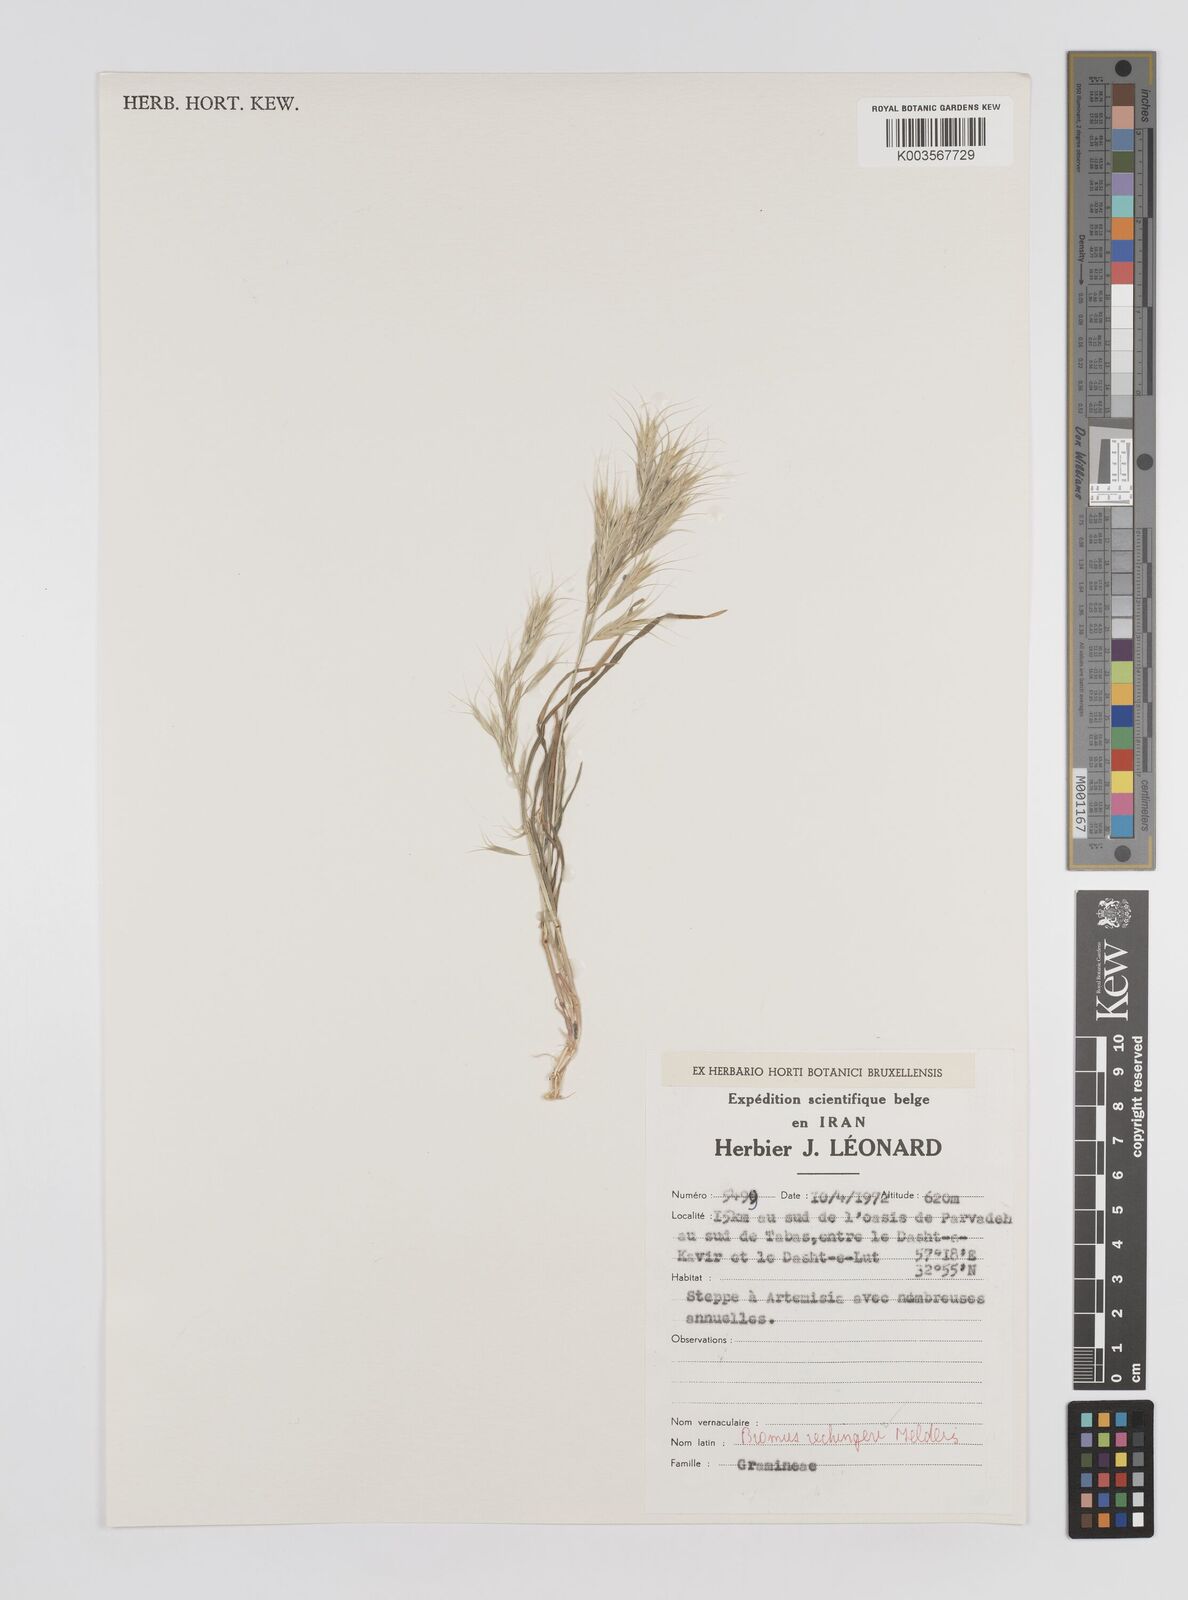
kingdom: Plantae
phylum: Tracheophyta
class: Liliopsida
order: Poales
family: Poaceae
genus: Bromus
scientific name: Bromus
